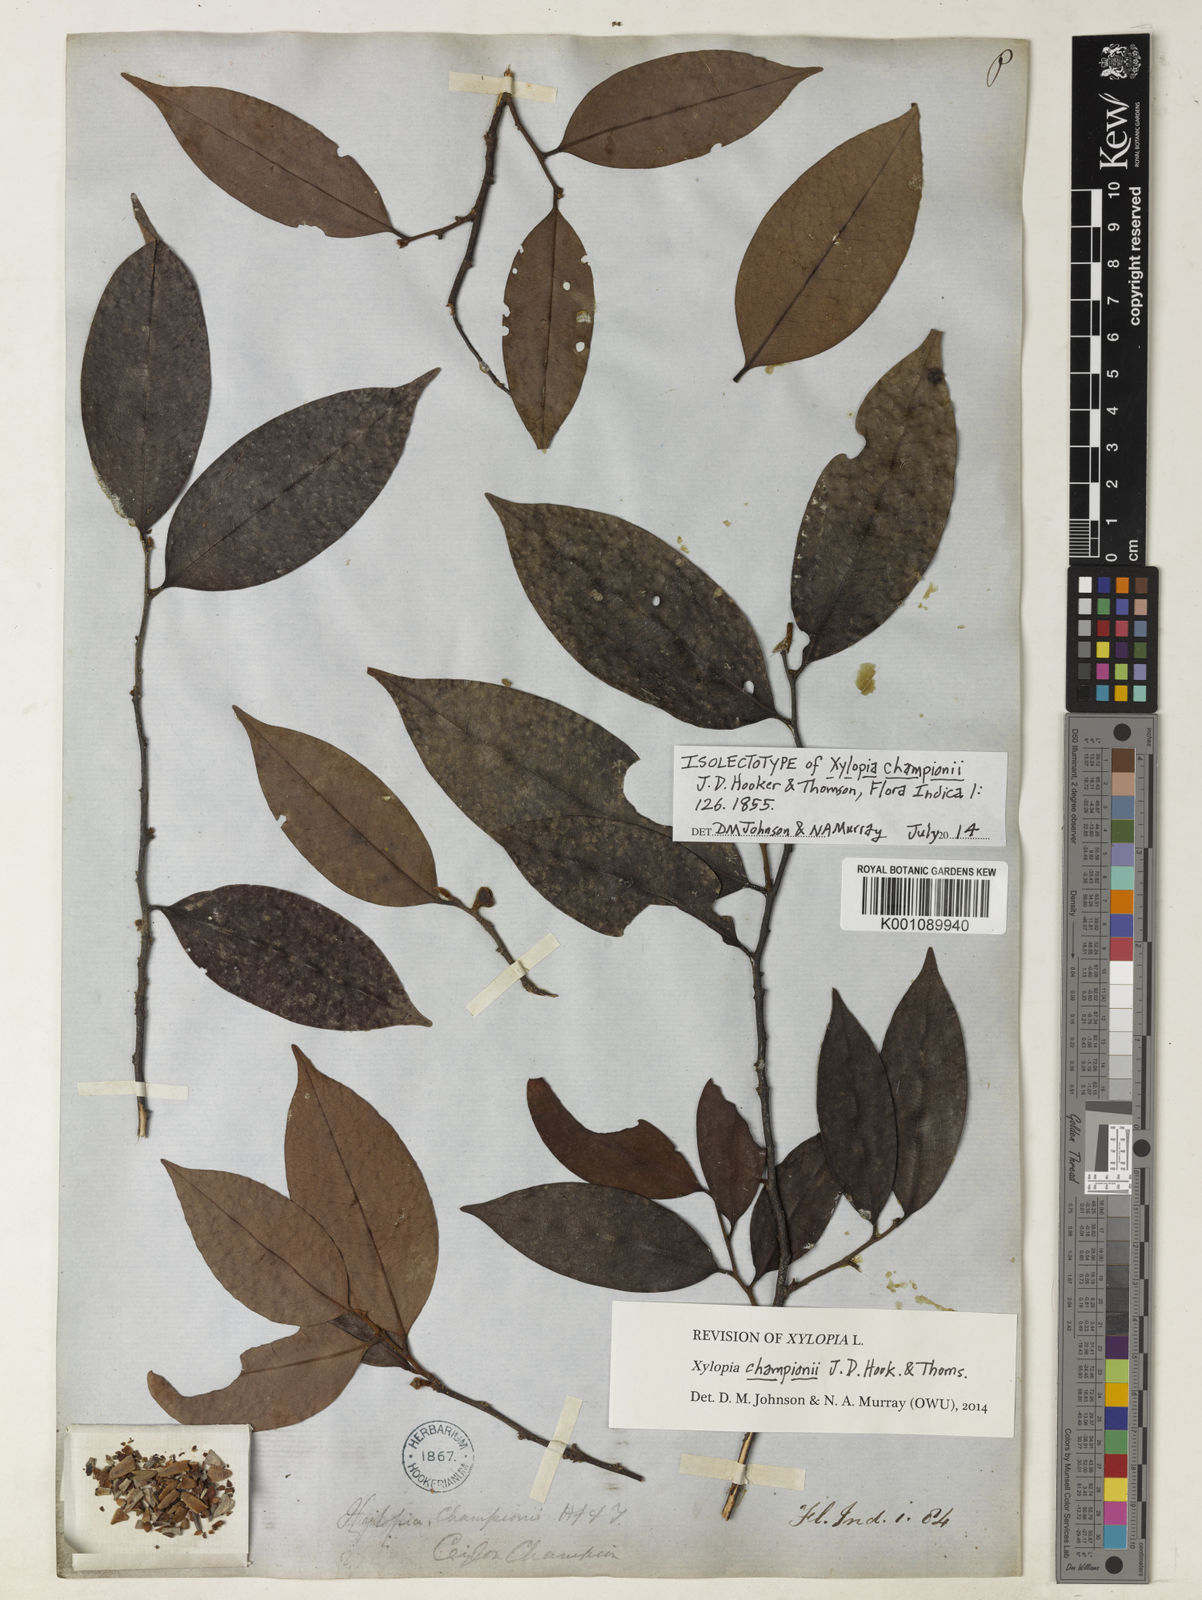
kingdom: Plantae
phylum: Tracheophyta
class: Magnoliopsida
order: Magnoliales
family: Annonaceae
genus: Xylopia
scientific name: Xylopia championii
